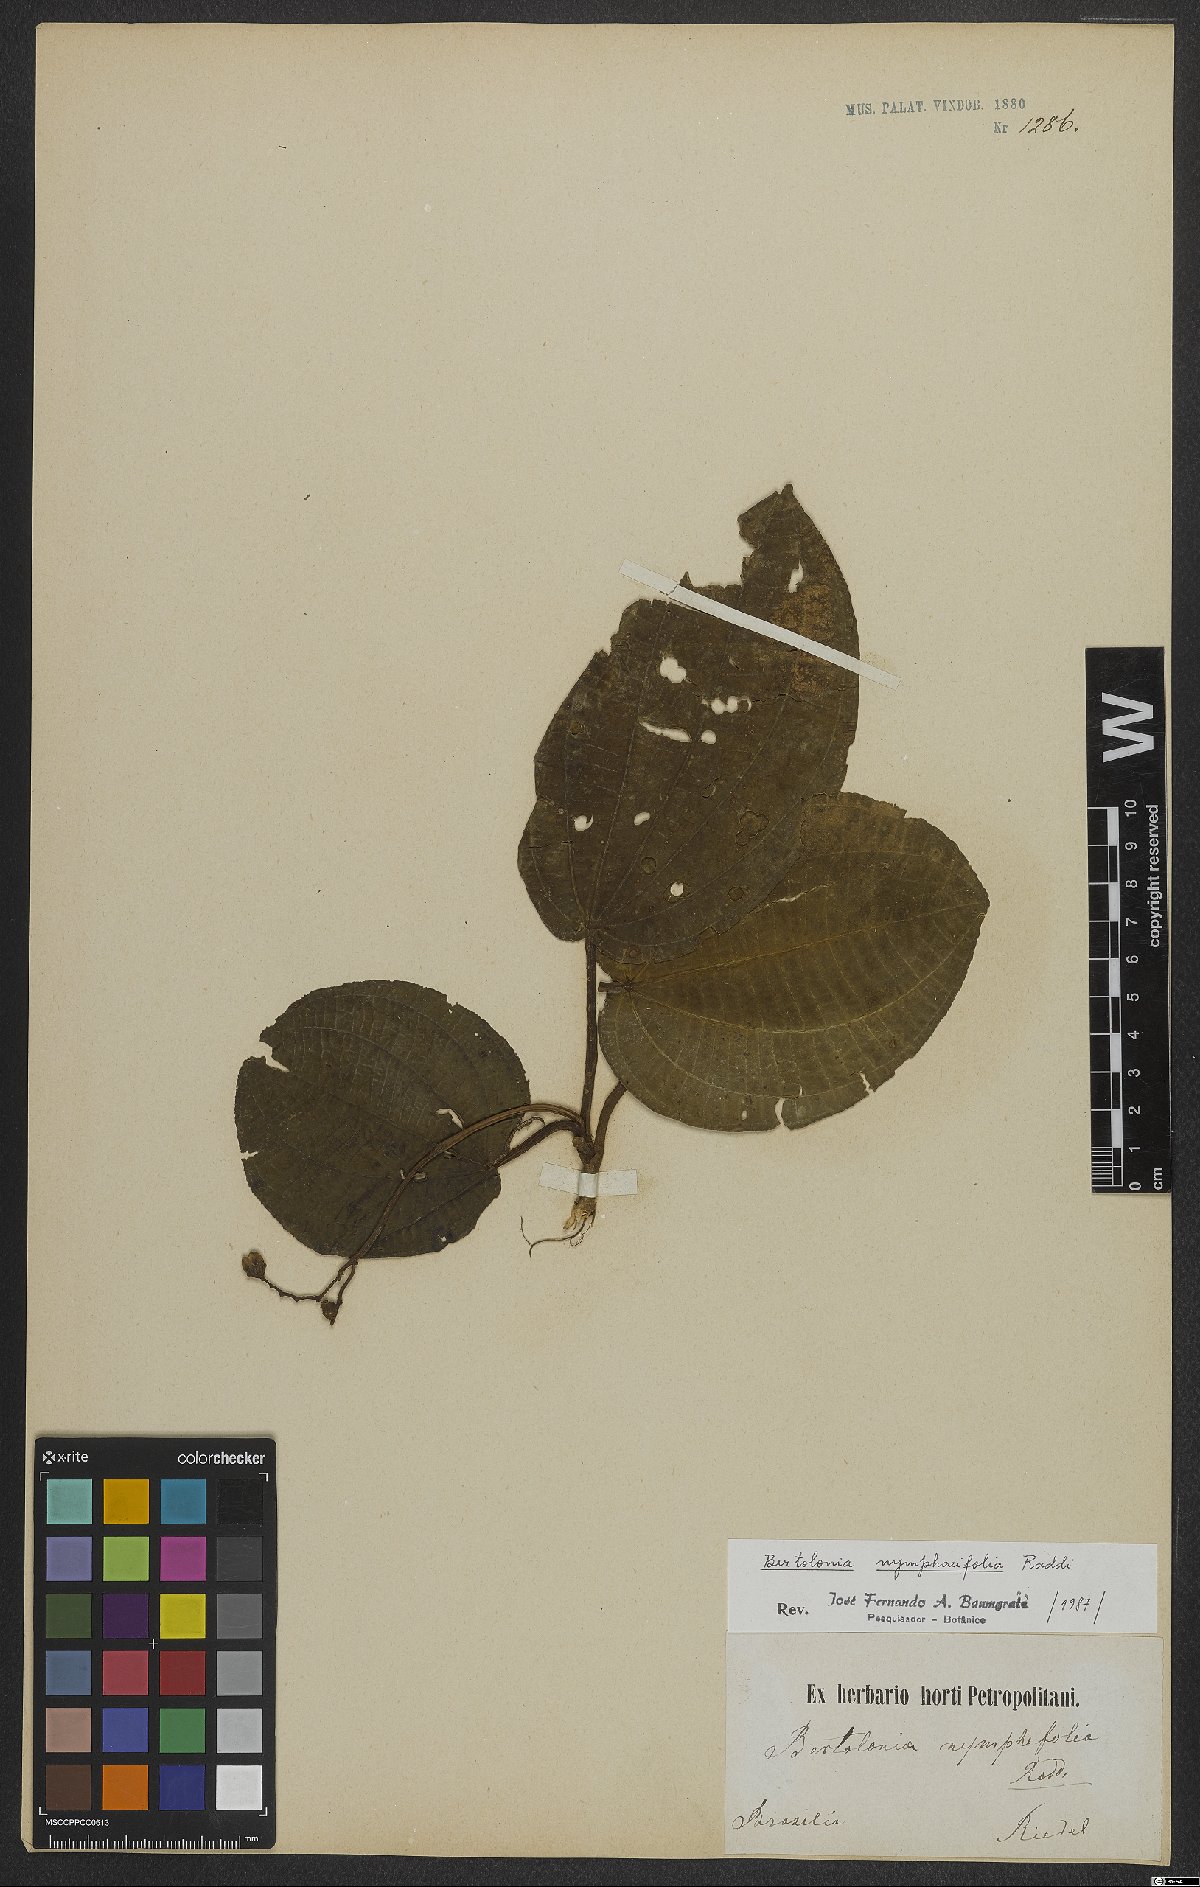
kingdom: Plantae
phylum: Tracheophyta
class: Magnoliopsida
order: Myrtales
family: Melastomataceae
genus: Bertolonia
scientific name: Bertolonia nymphaeifolia
